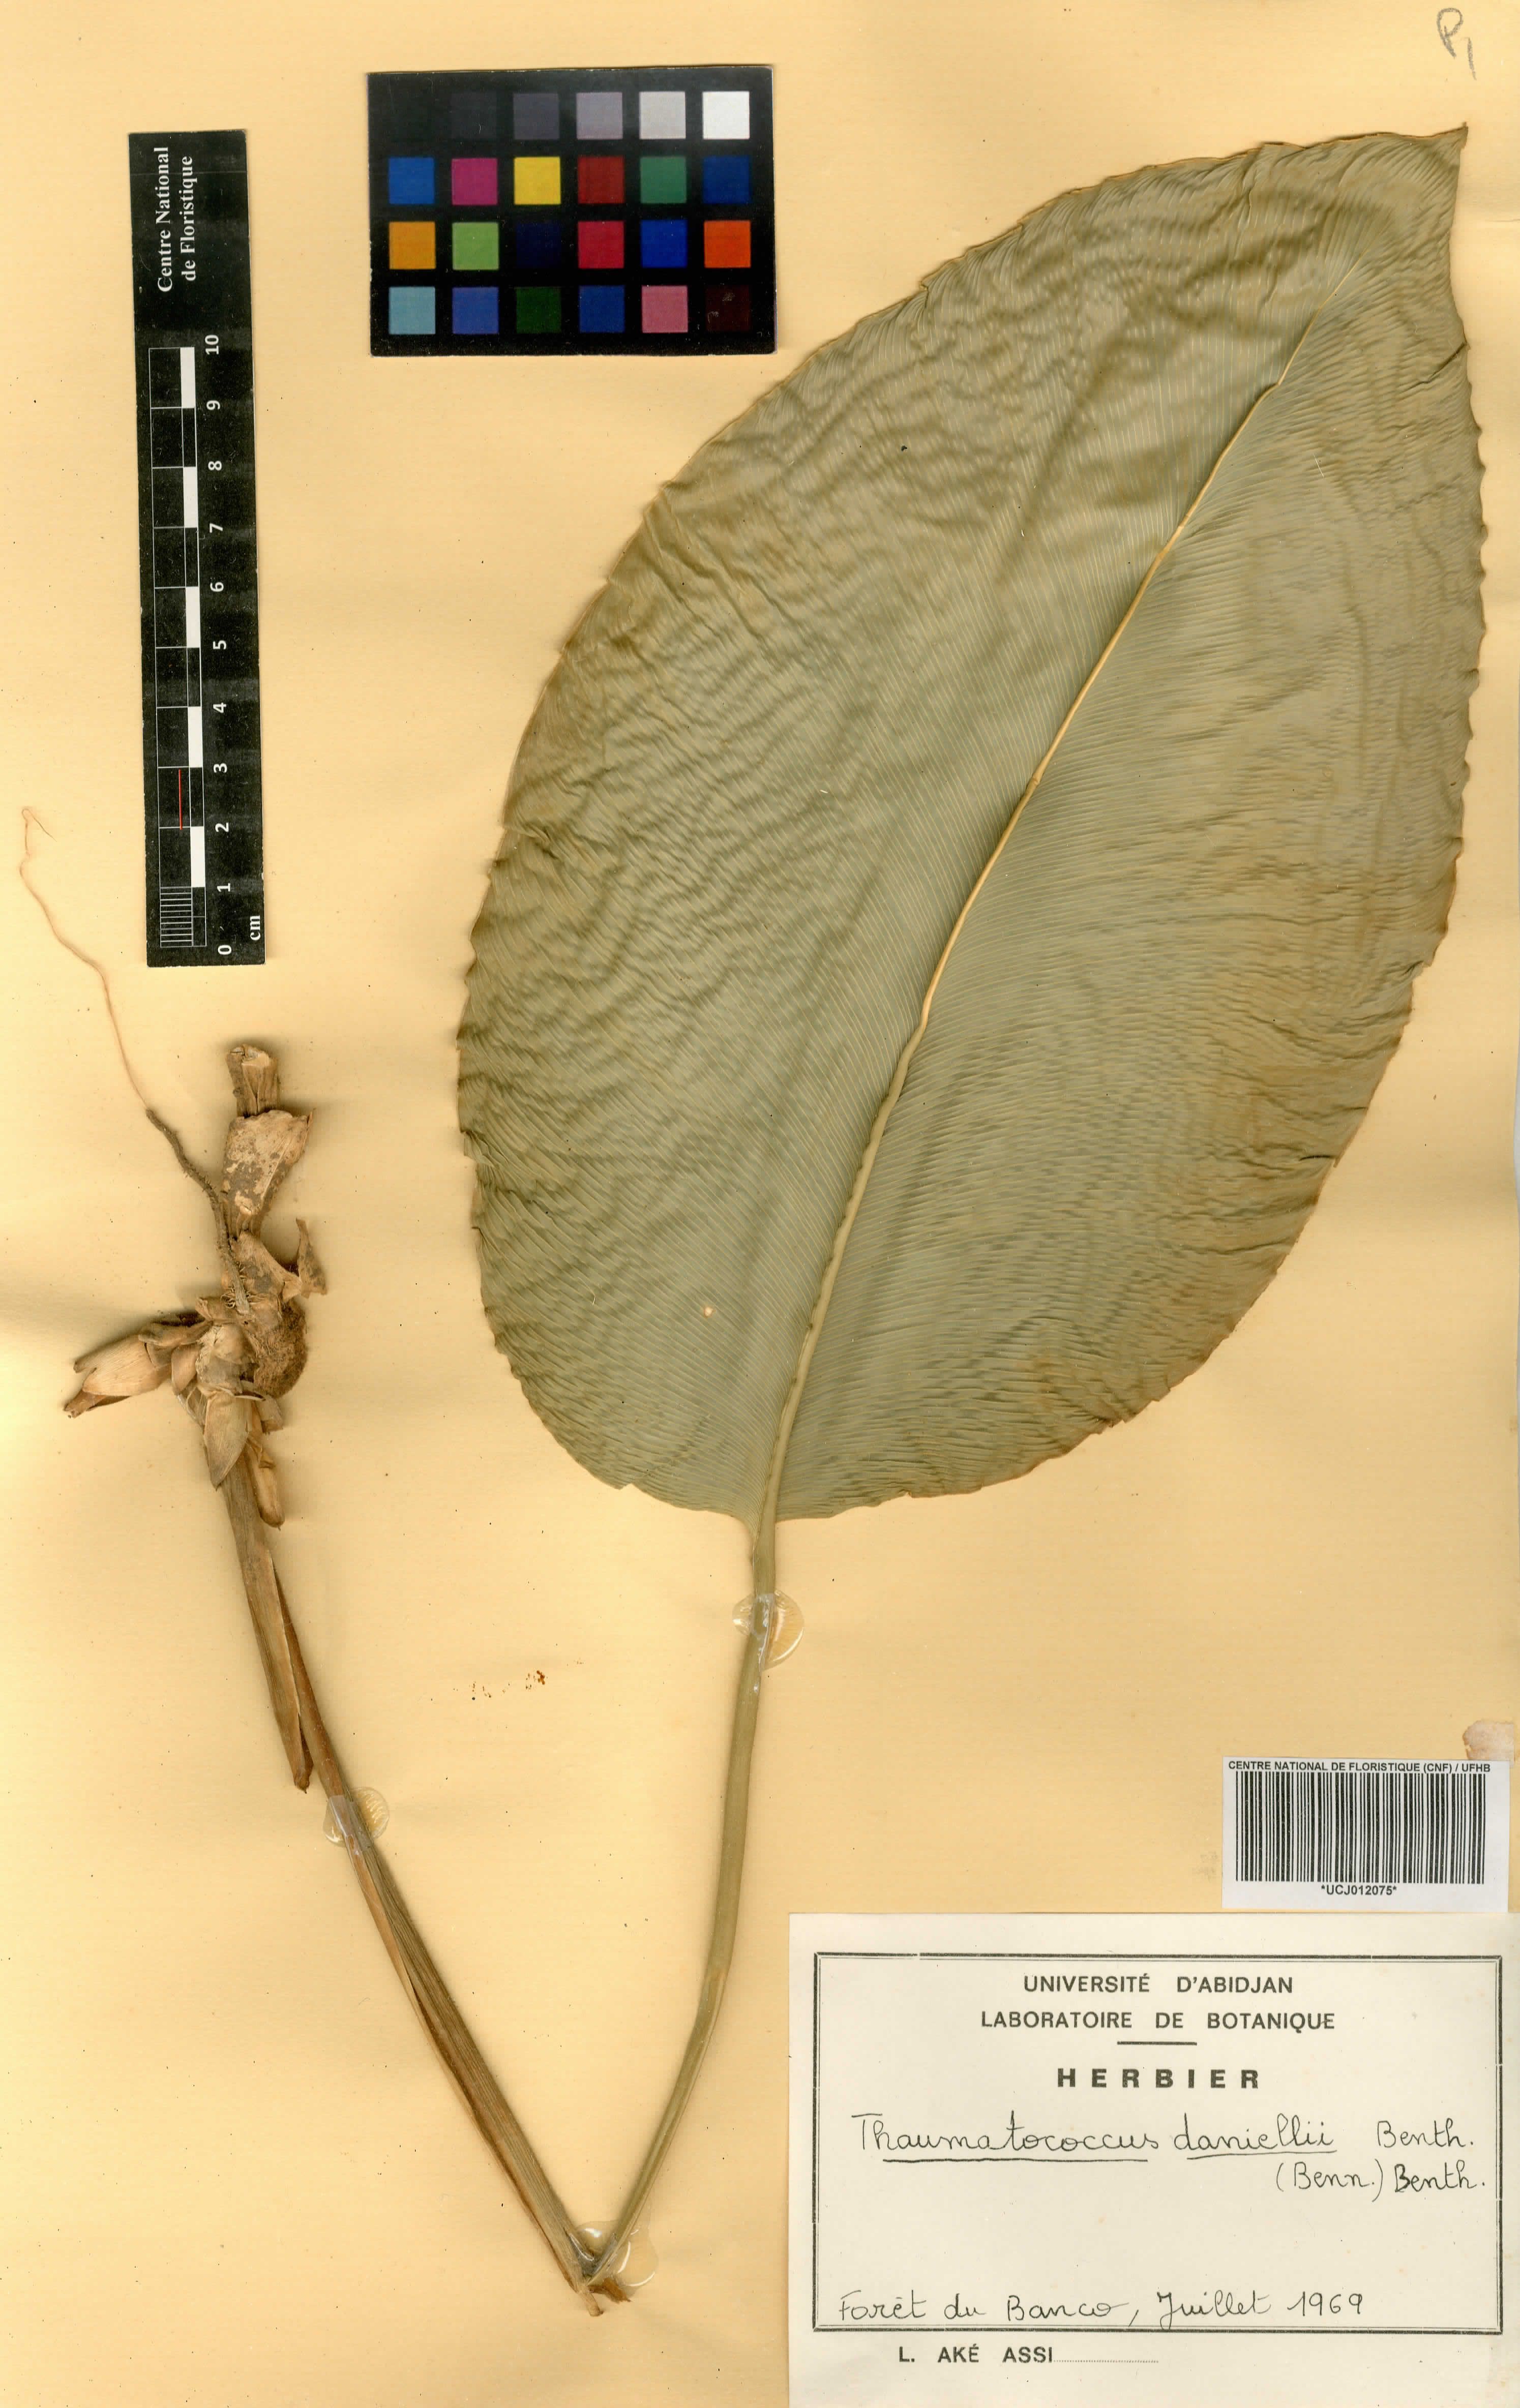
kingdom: Plantae
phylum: Tracheophyta
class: Liliopsida
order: Zingiberales
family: Marantaceae
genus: Thaumatococcus
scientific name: Thaumatococcus daniellii
